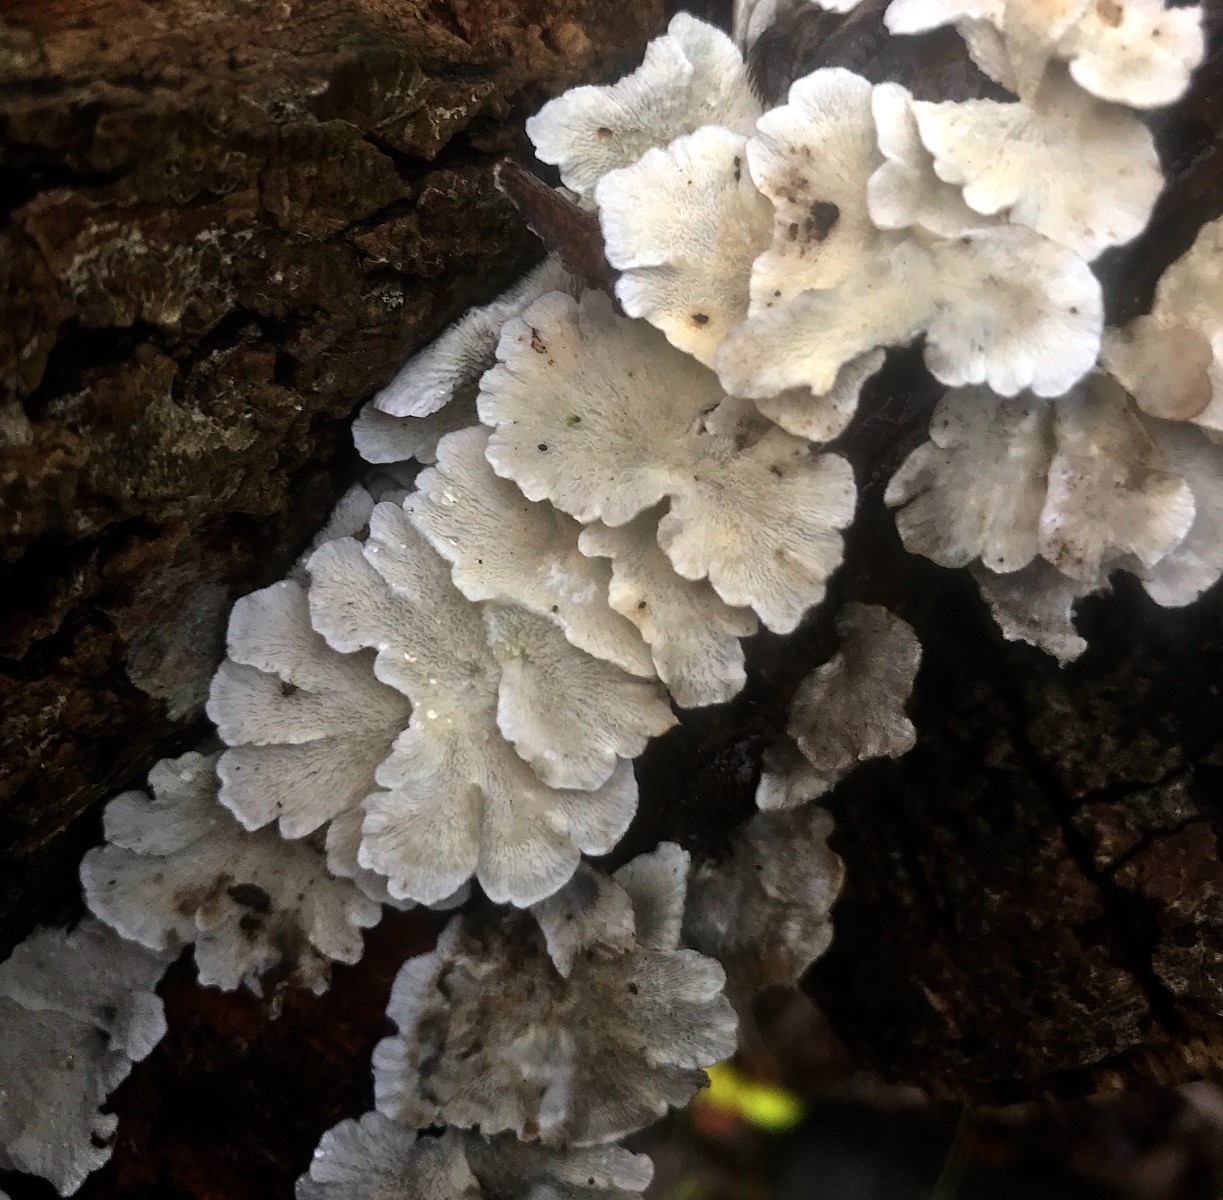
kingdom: Fungi
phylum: Basidiomycota
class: Agaricomycetes
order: Amylocorticiales
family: Amylocorticiaceae
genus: Plicaturopsis
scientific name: Plicaturopsis crispa
